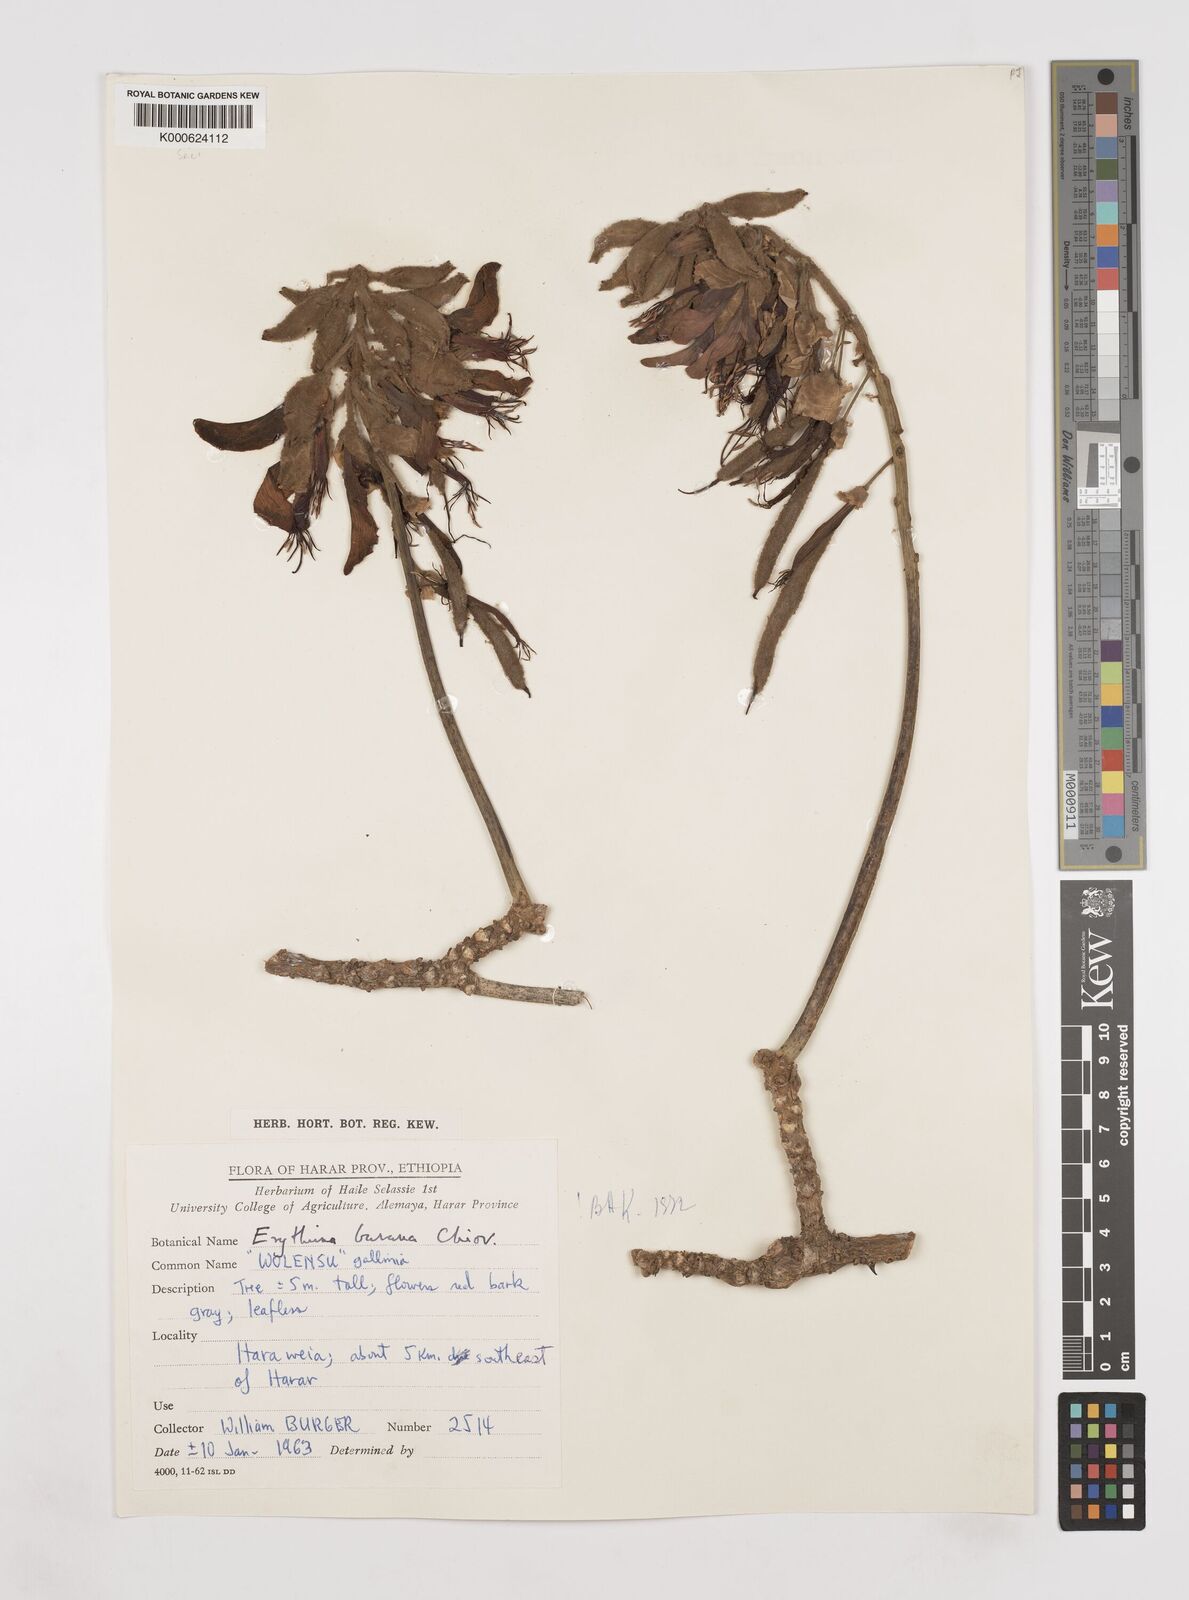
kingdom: Plantae
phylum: Tracheophyta
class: Magnoliopsida
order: Fabales
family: Fabaceae
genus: Erythrina
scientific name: Erythrina burana
